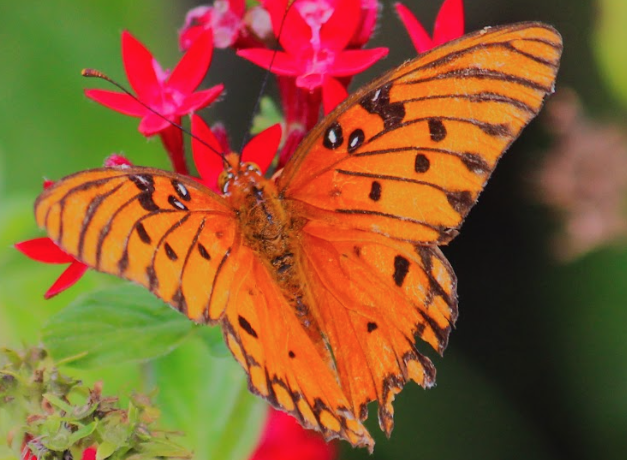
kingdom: Animalia
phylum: Arthropoda
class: Insecta
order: Lepidoptera
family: Nymphalidae
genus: Dione
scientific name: Dione vanillae
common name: Gulf Fritillary
